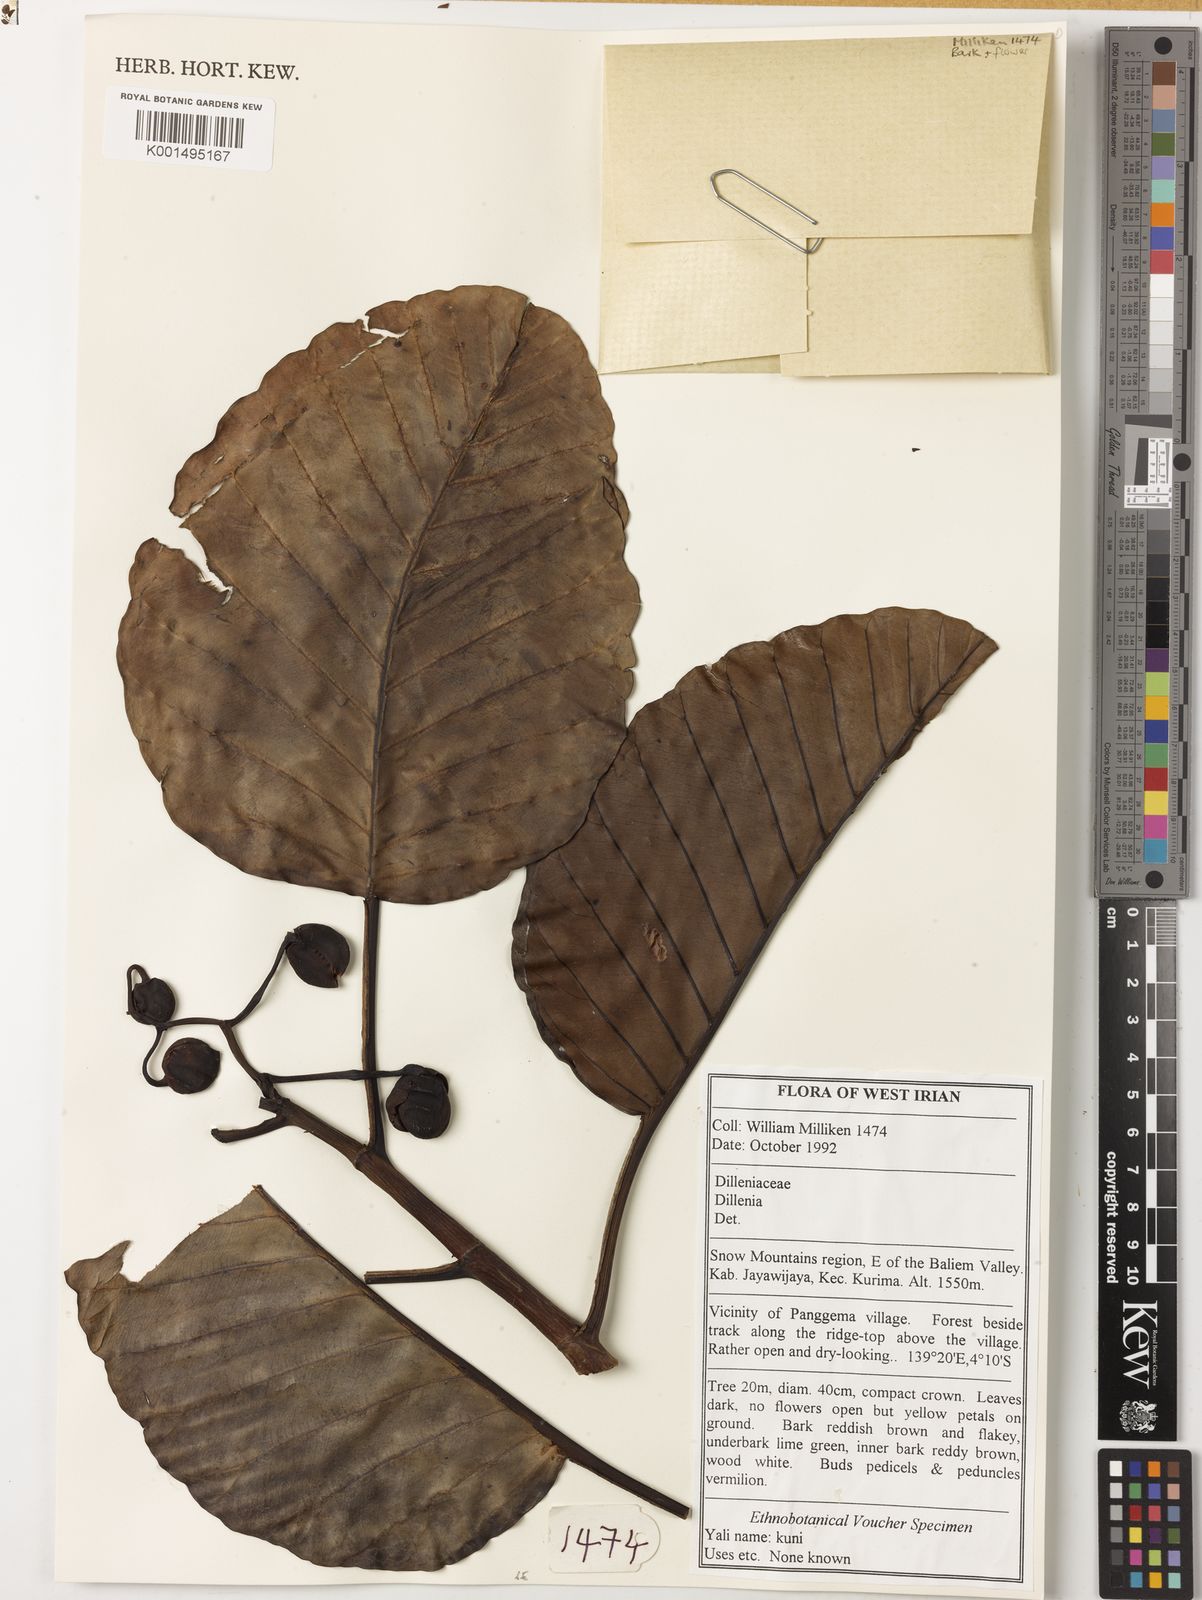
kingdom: Plantae
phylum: Tracheophyta
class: Magnoliopsida
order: Dilleniales
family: Dilleniaceae
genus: Dillenia
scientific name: Dillenia
